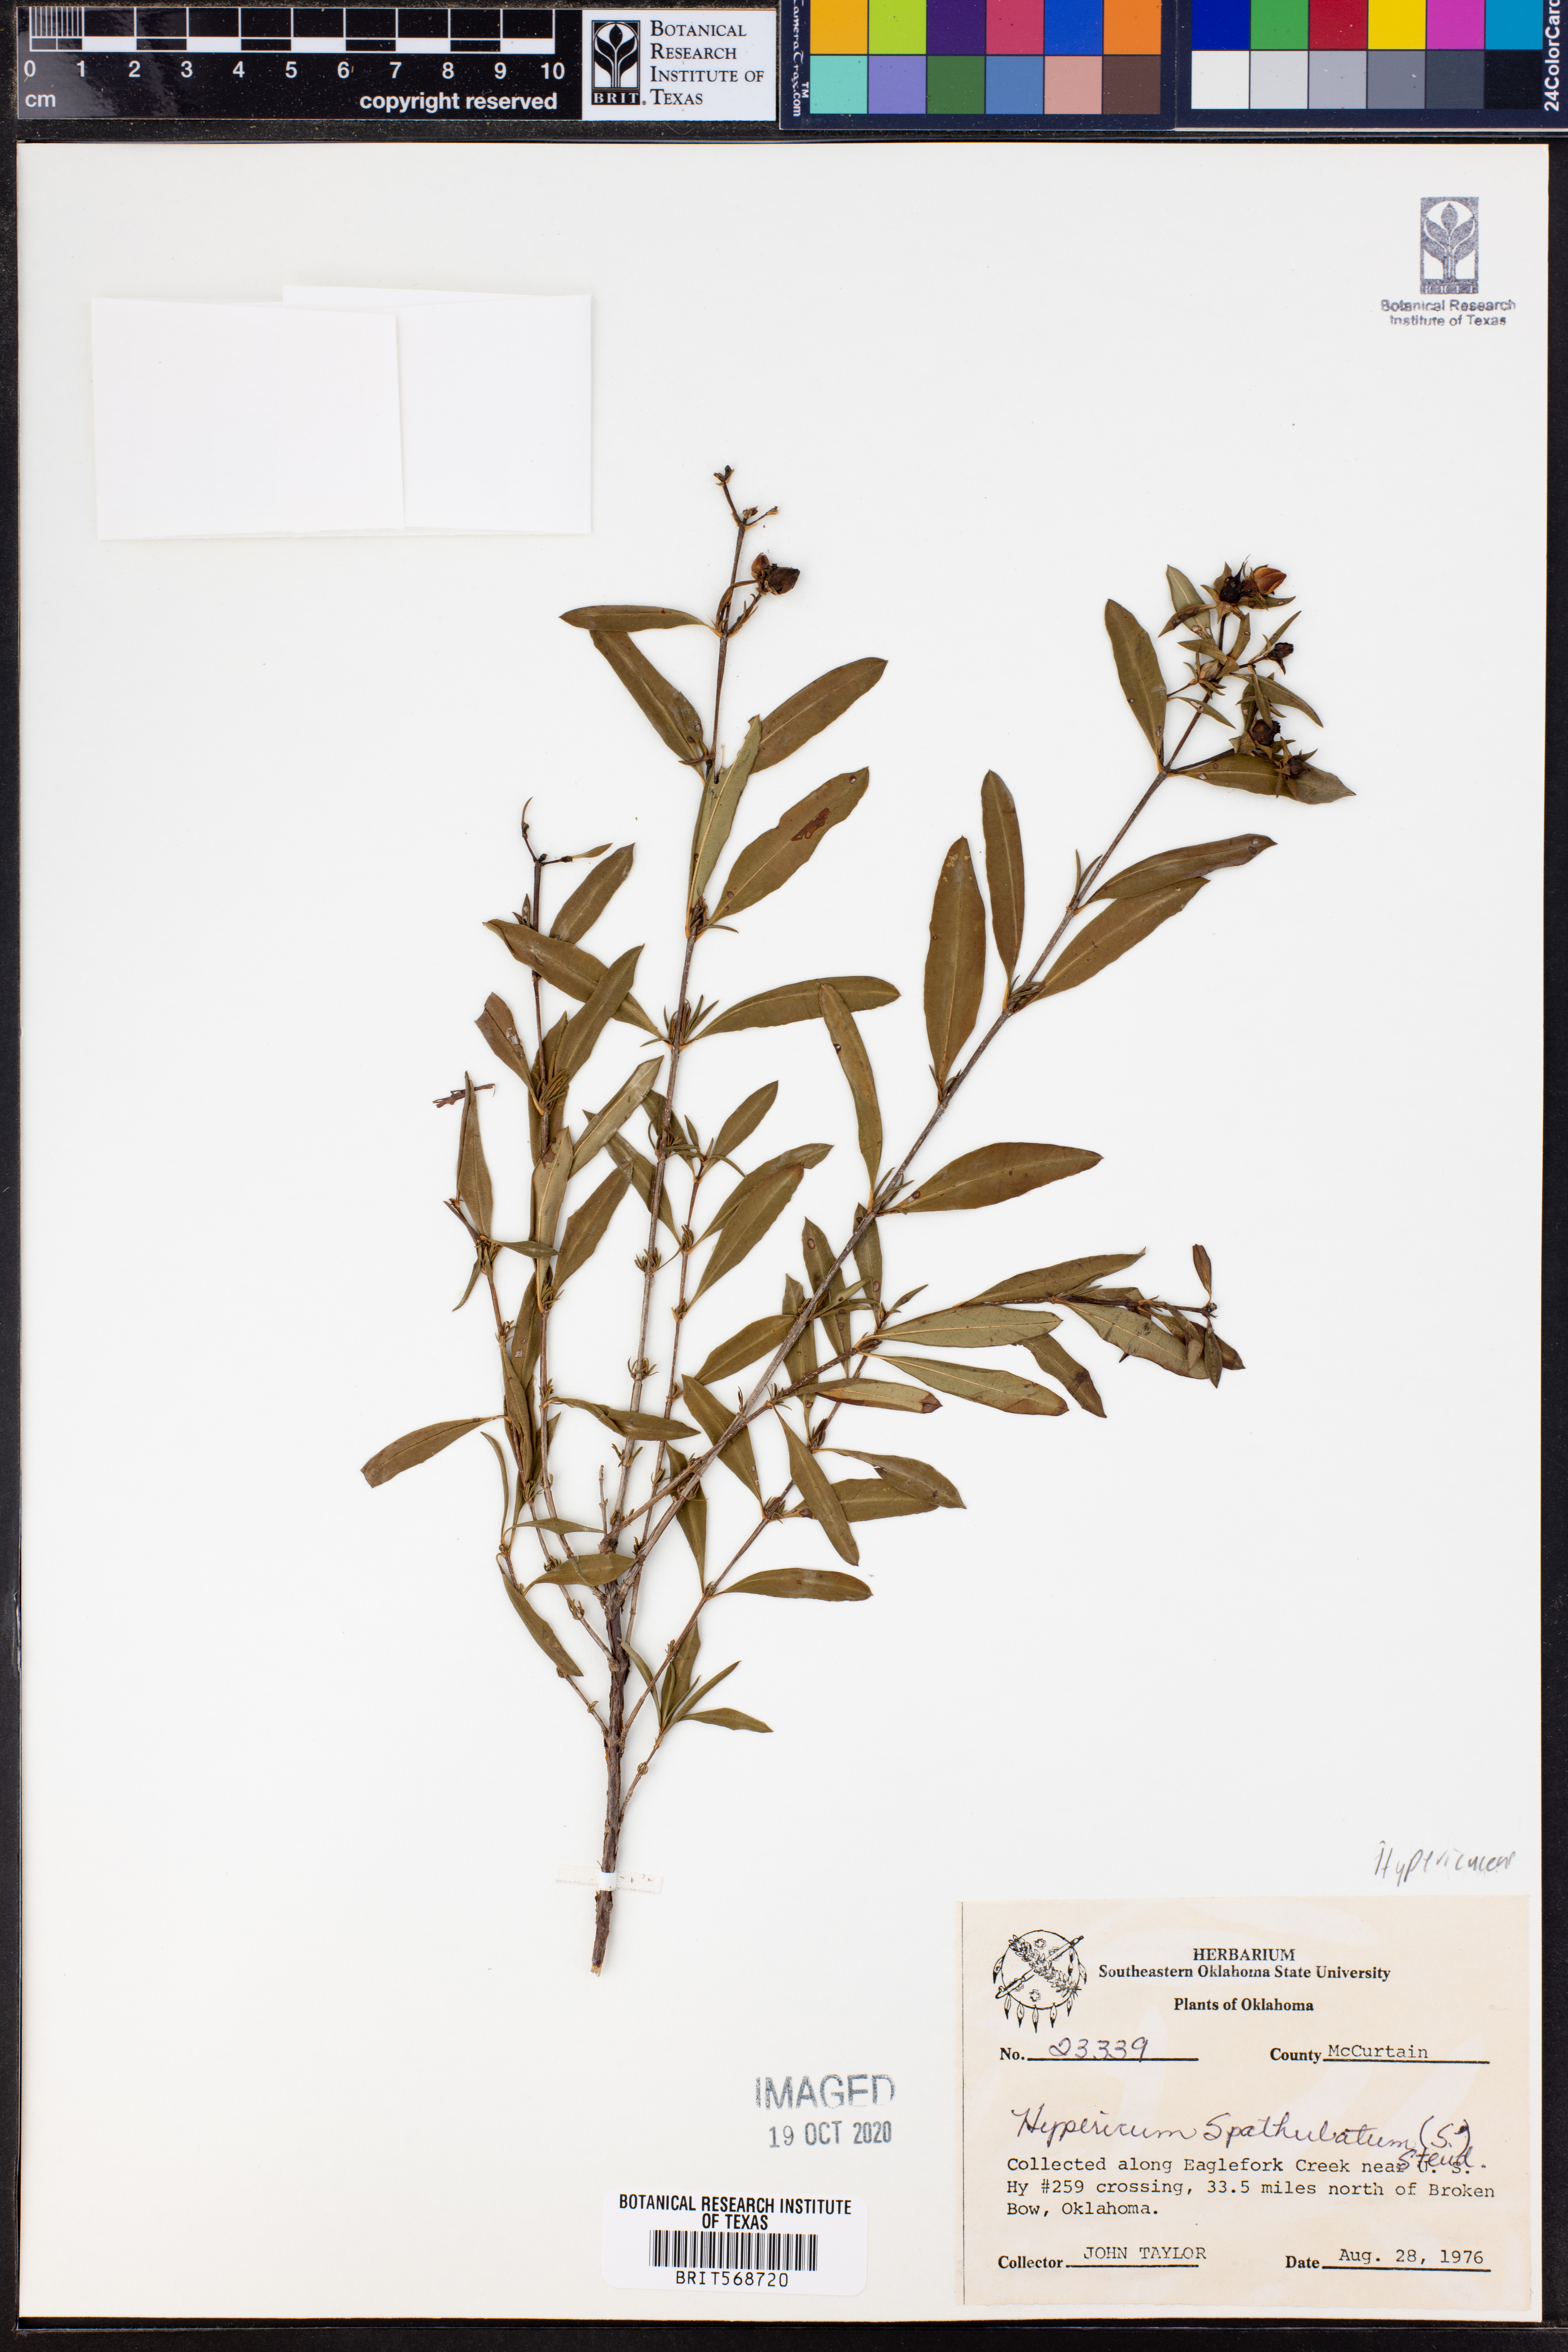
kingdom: Plantae
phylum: Tracheophyta
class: Magnoliopsida
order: Malpighiales
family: Hypericaceae
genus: Hypericum
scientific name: Hypericum prolificum
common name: Shrubby st. john's-wort
